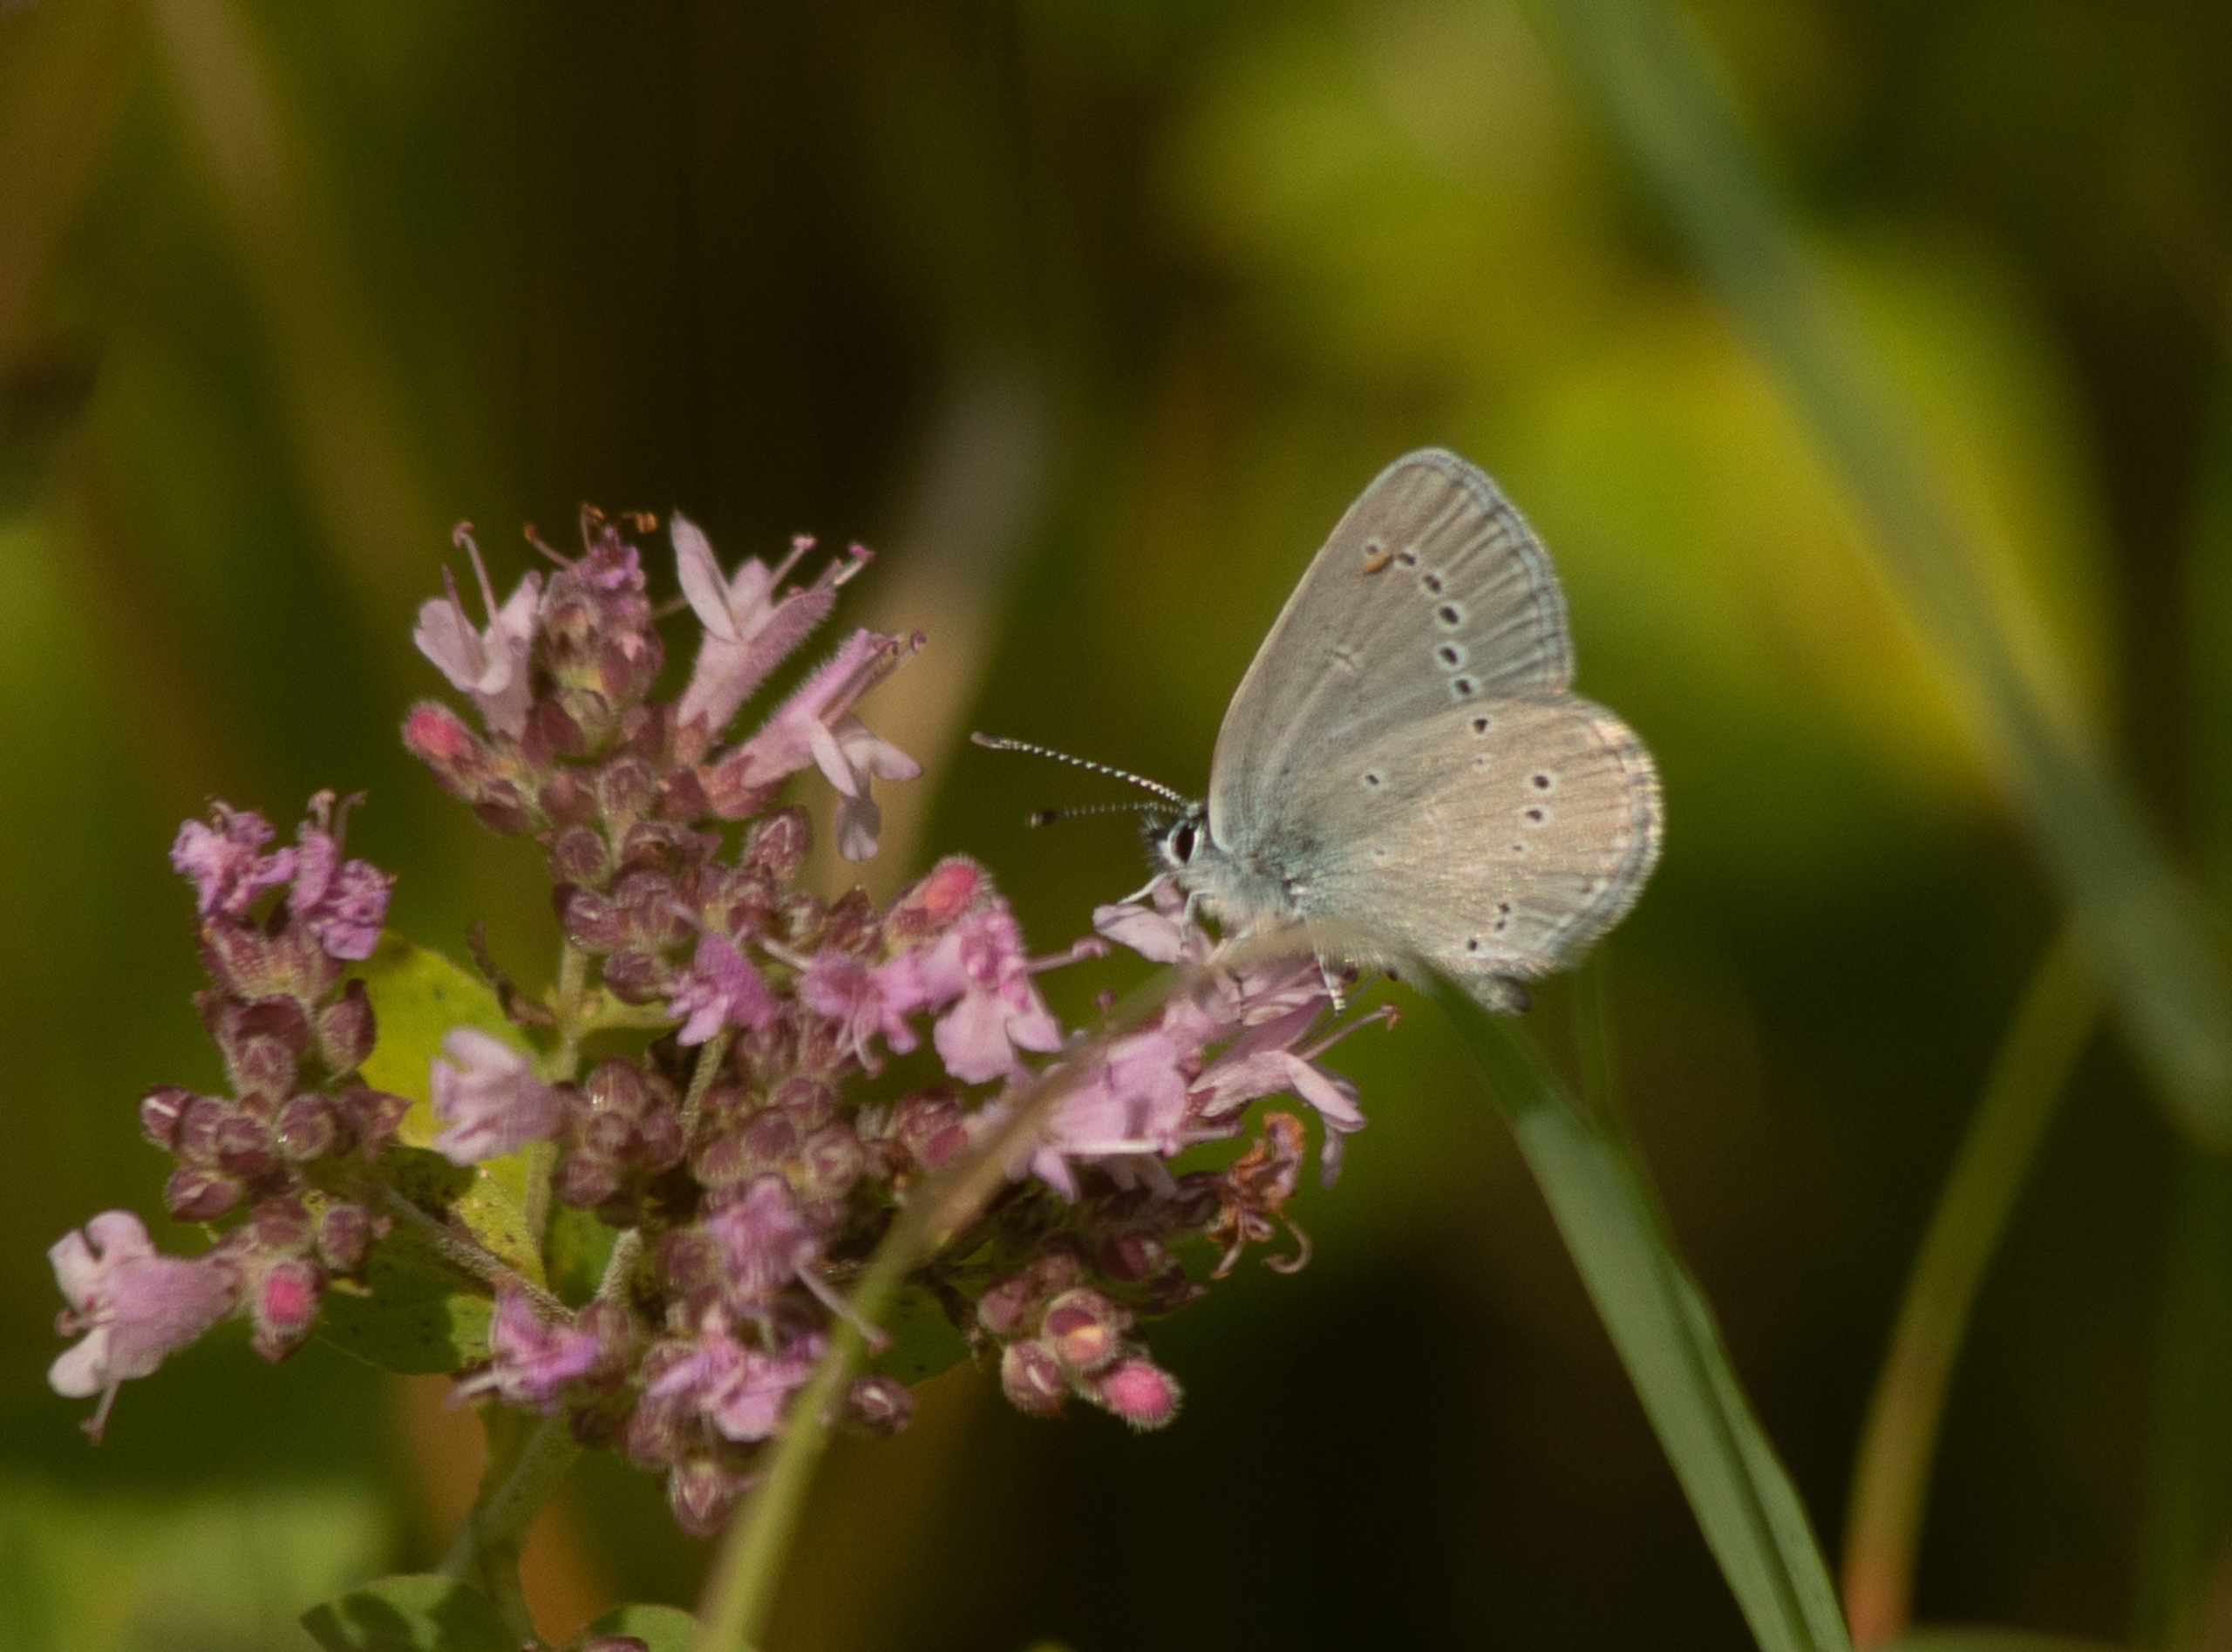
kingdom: Animalia
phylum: Arthropoda
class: Insecta
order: Lepidoptera
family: Lycaenidae
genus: Cupido
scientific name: Cupido minimus
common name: Dværgblåfugl
